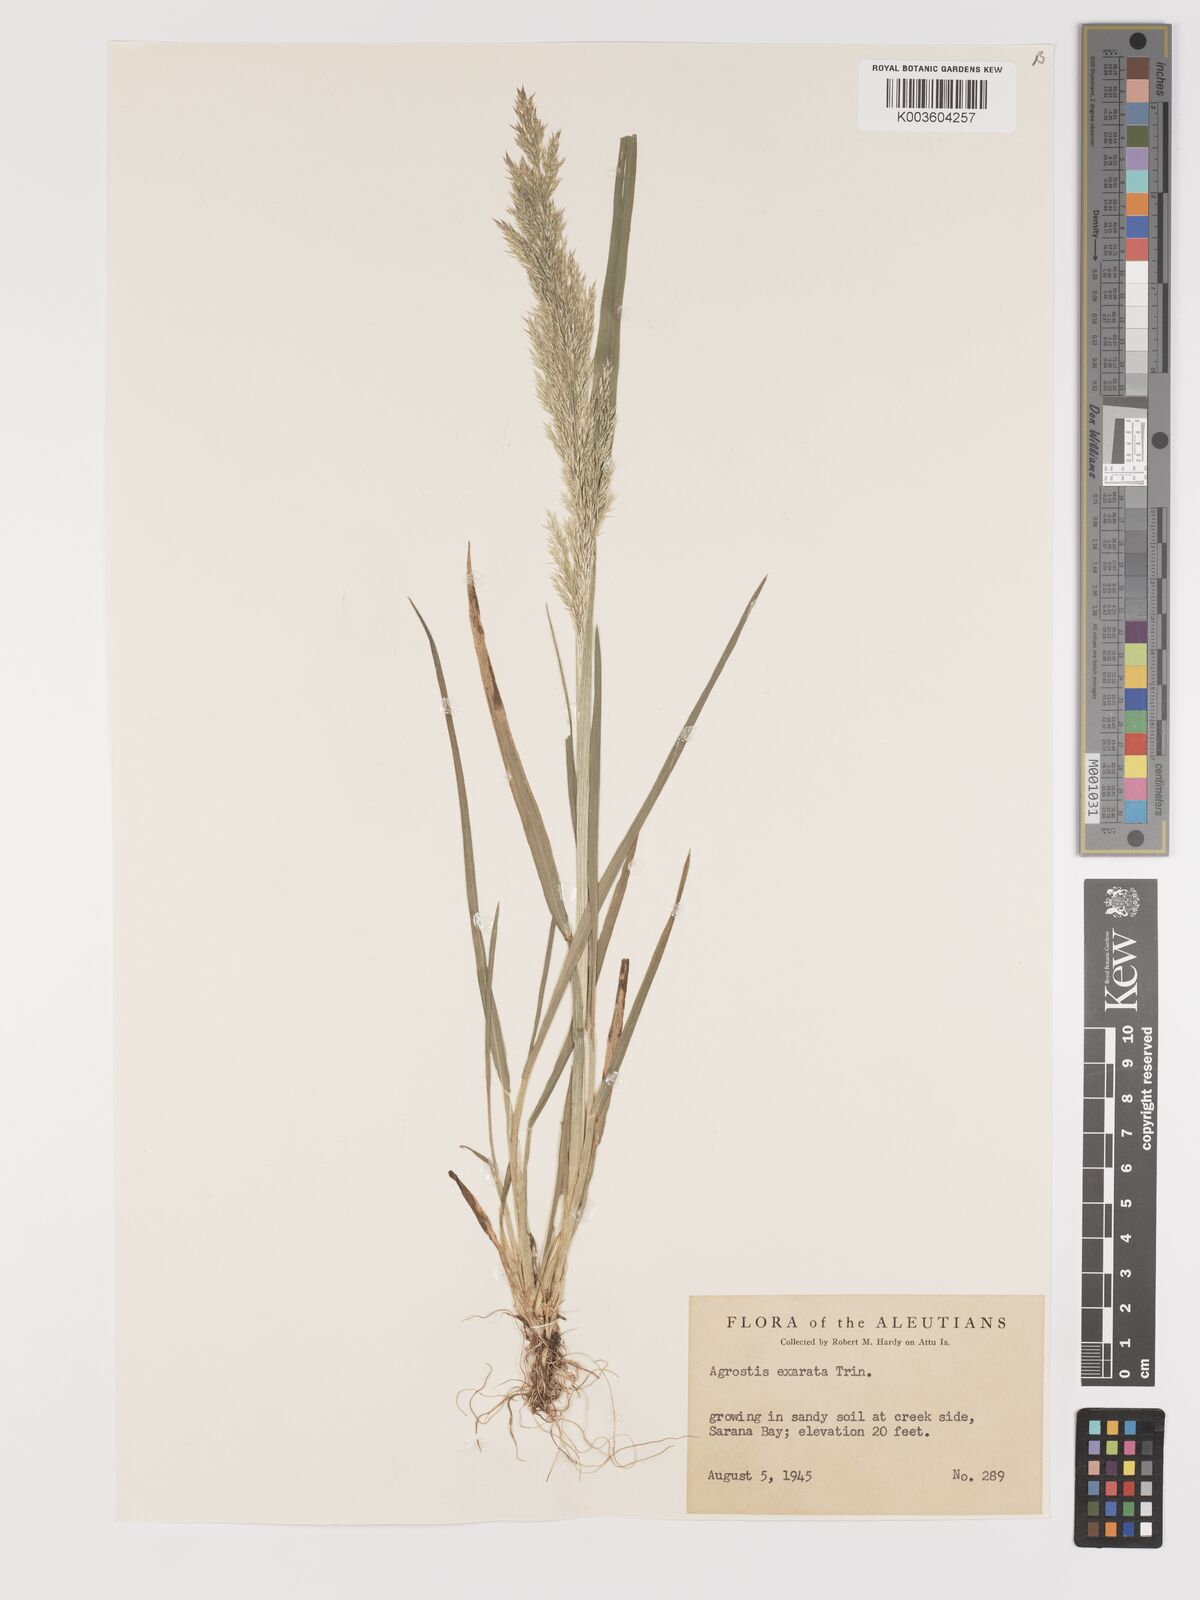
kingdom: Plantae
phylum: Tracheophyta
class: Liliopsida
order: Poales
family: Poaceae
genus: Agrostis
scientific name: Agrostis exarata
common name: Spike bent
